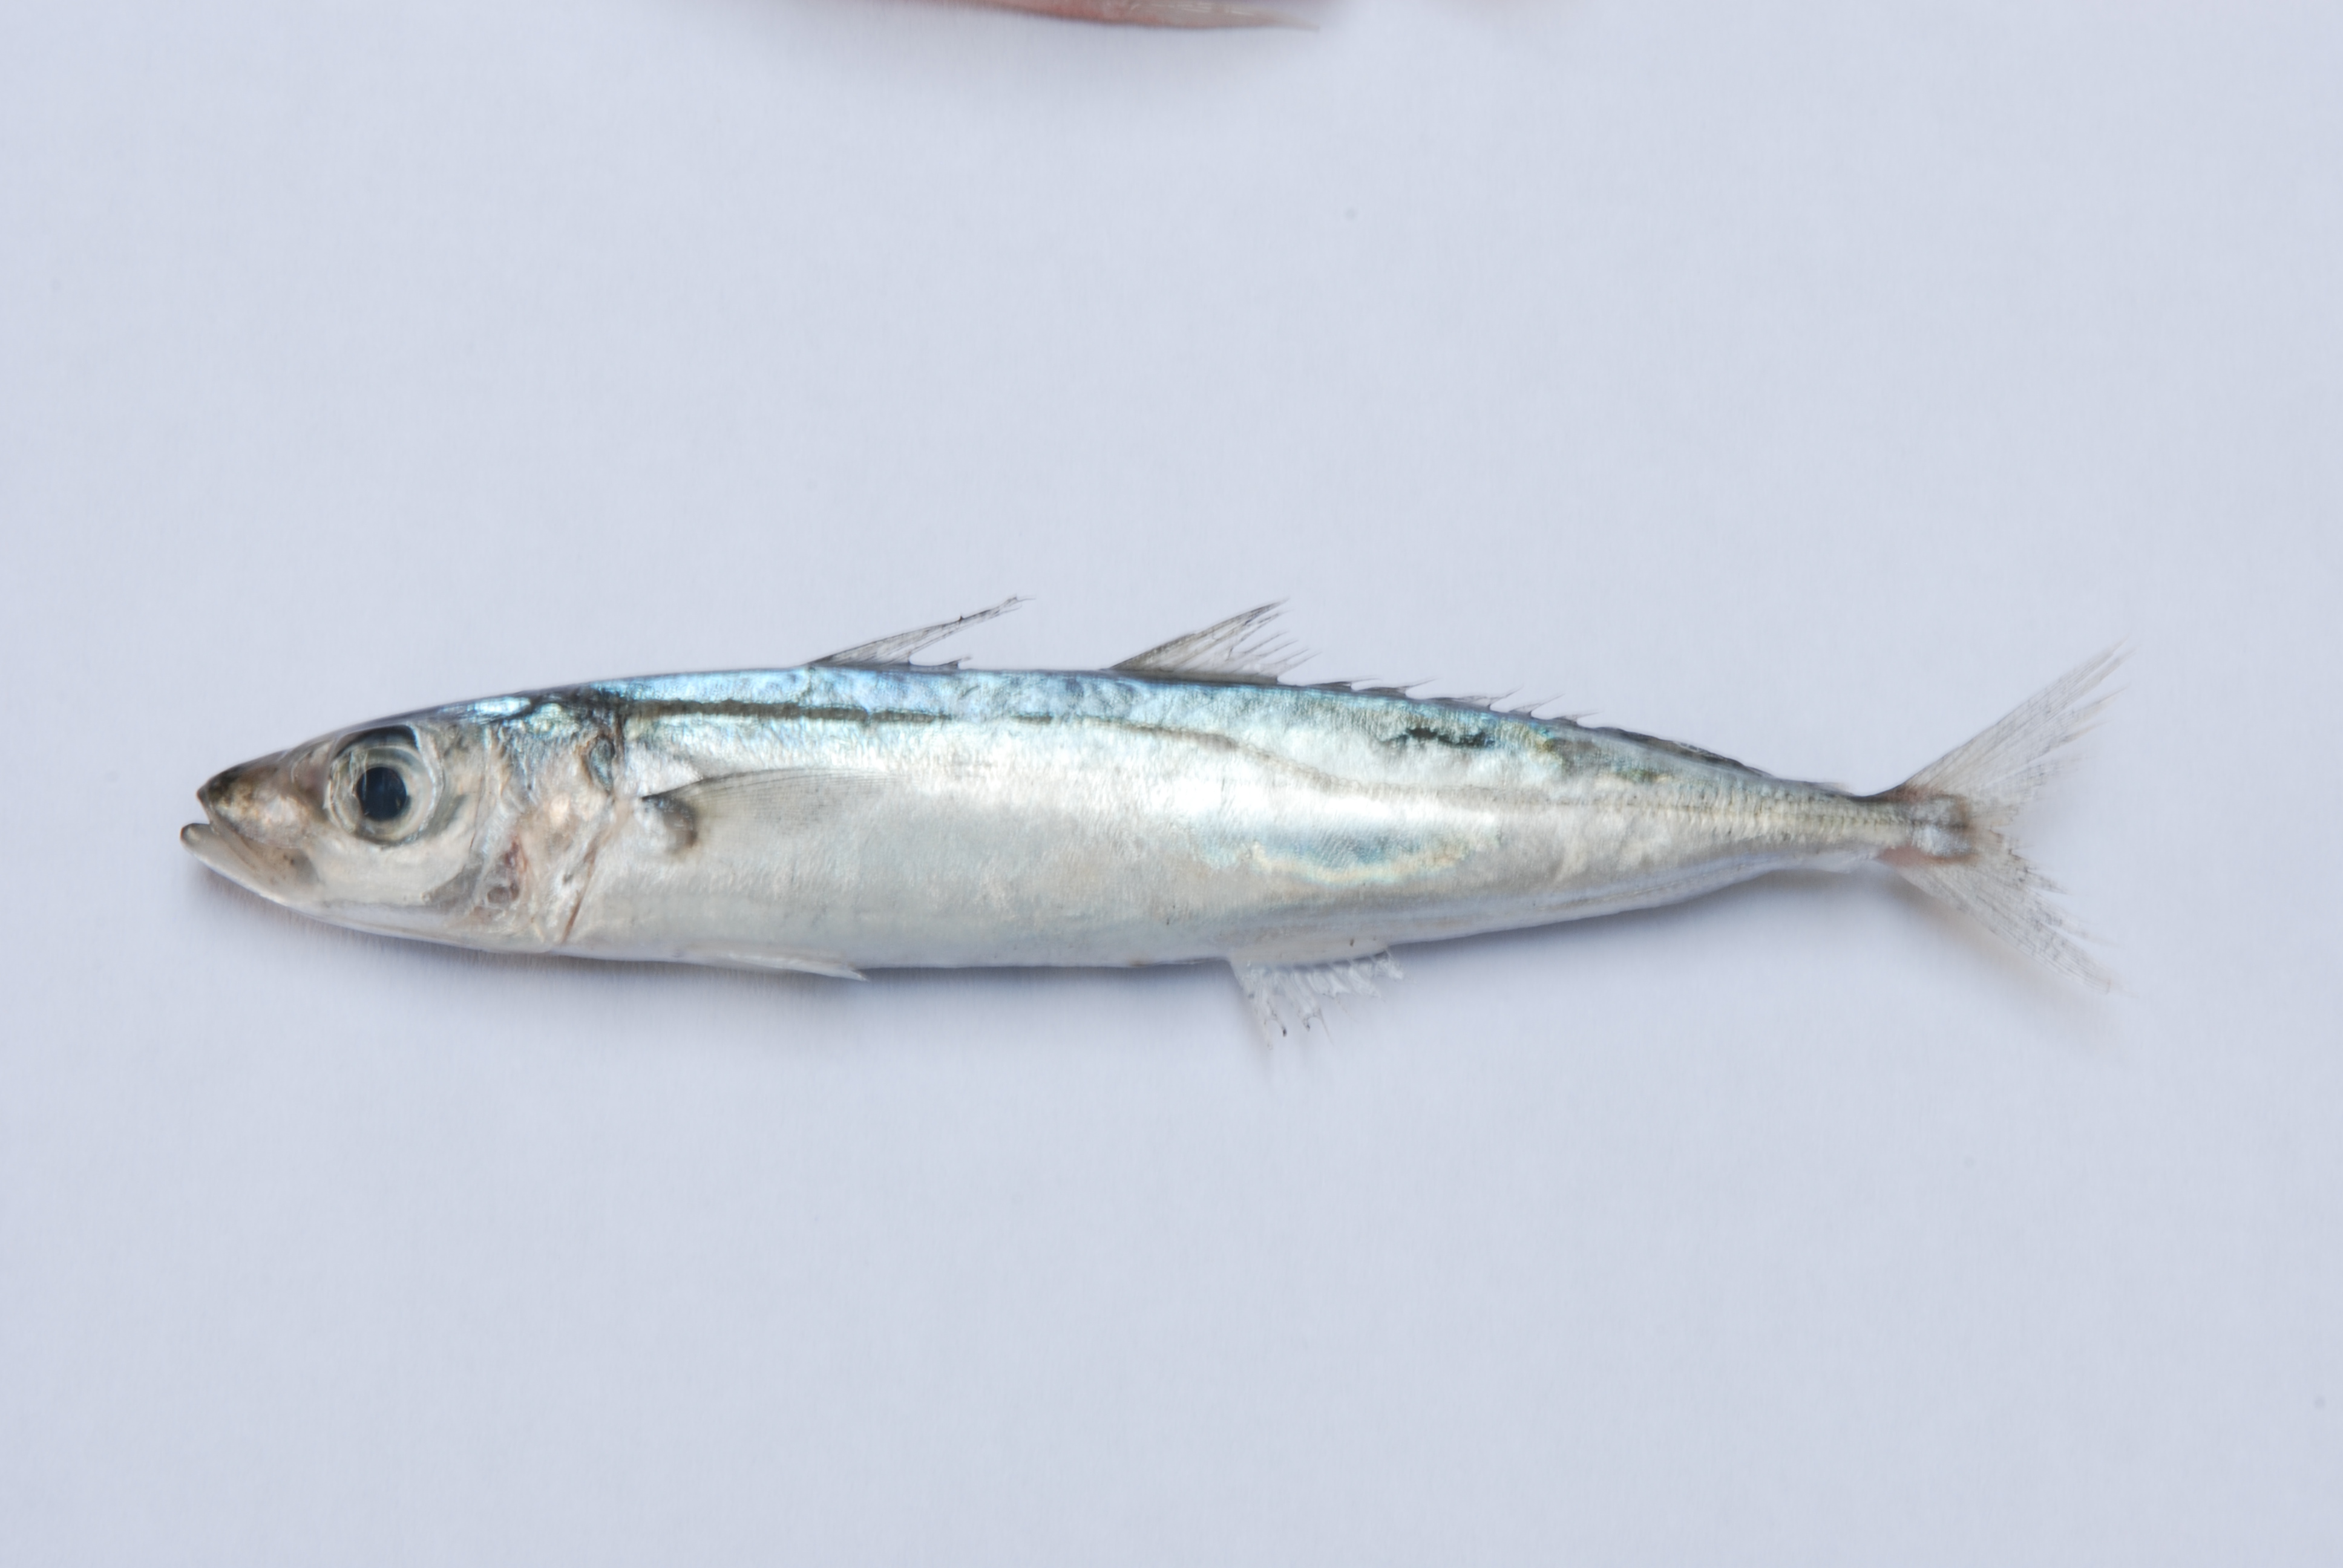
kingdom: Animalia
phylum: Chordata
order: Perciformes
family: Carangidae
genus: Decapterus
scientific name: Decapterus macrosoma
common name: Shortfin scad
